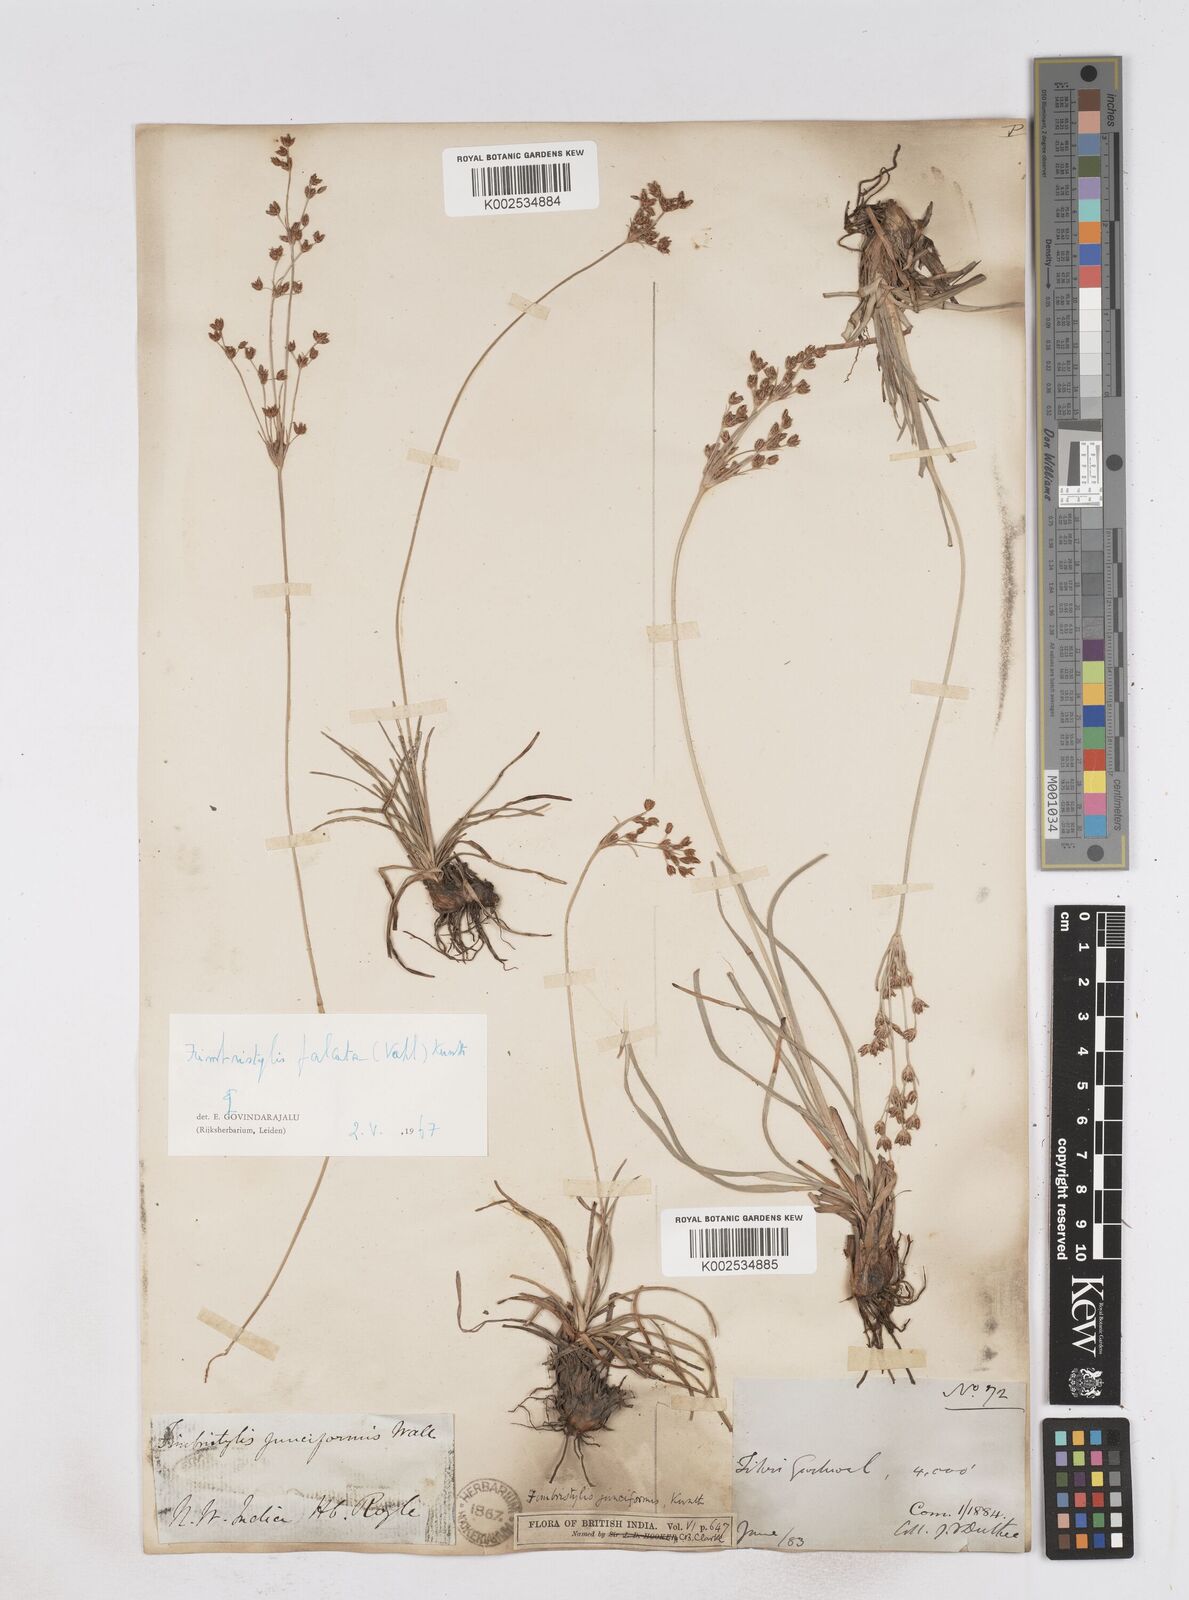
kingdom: Plantae
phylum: Tracheophyta
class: Liliopsida
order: Poales
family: Cyperaceae
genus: Fimbristylis
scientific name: Fimbristylis falcata
